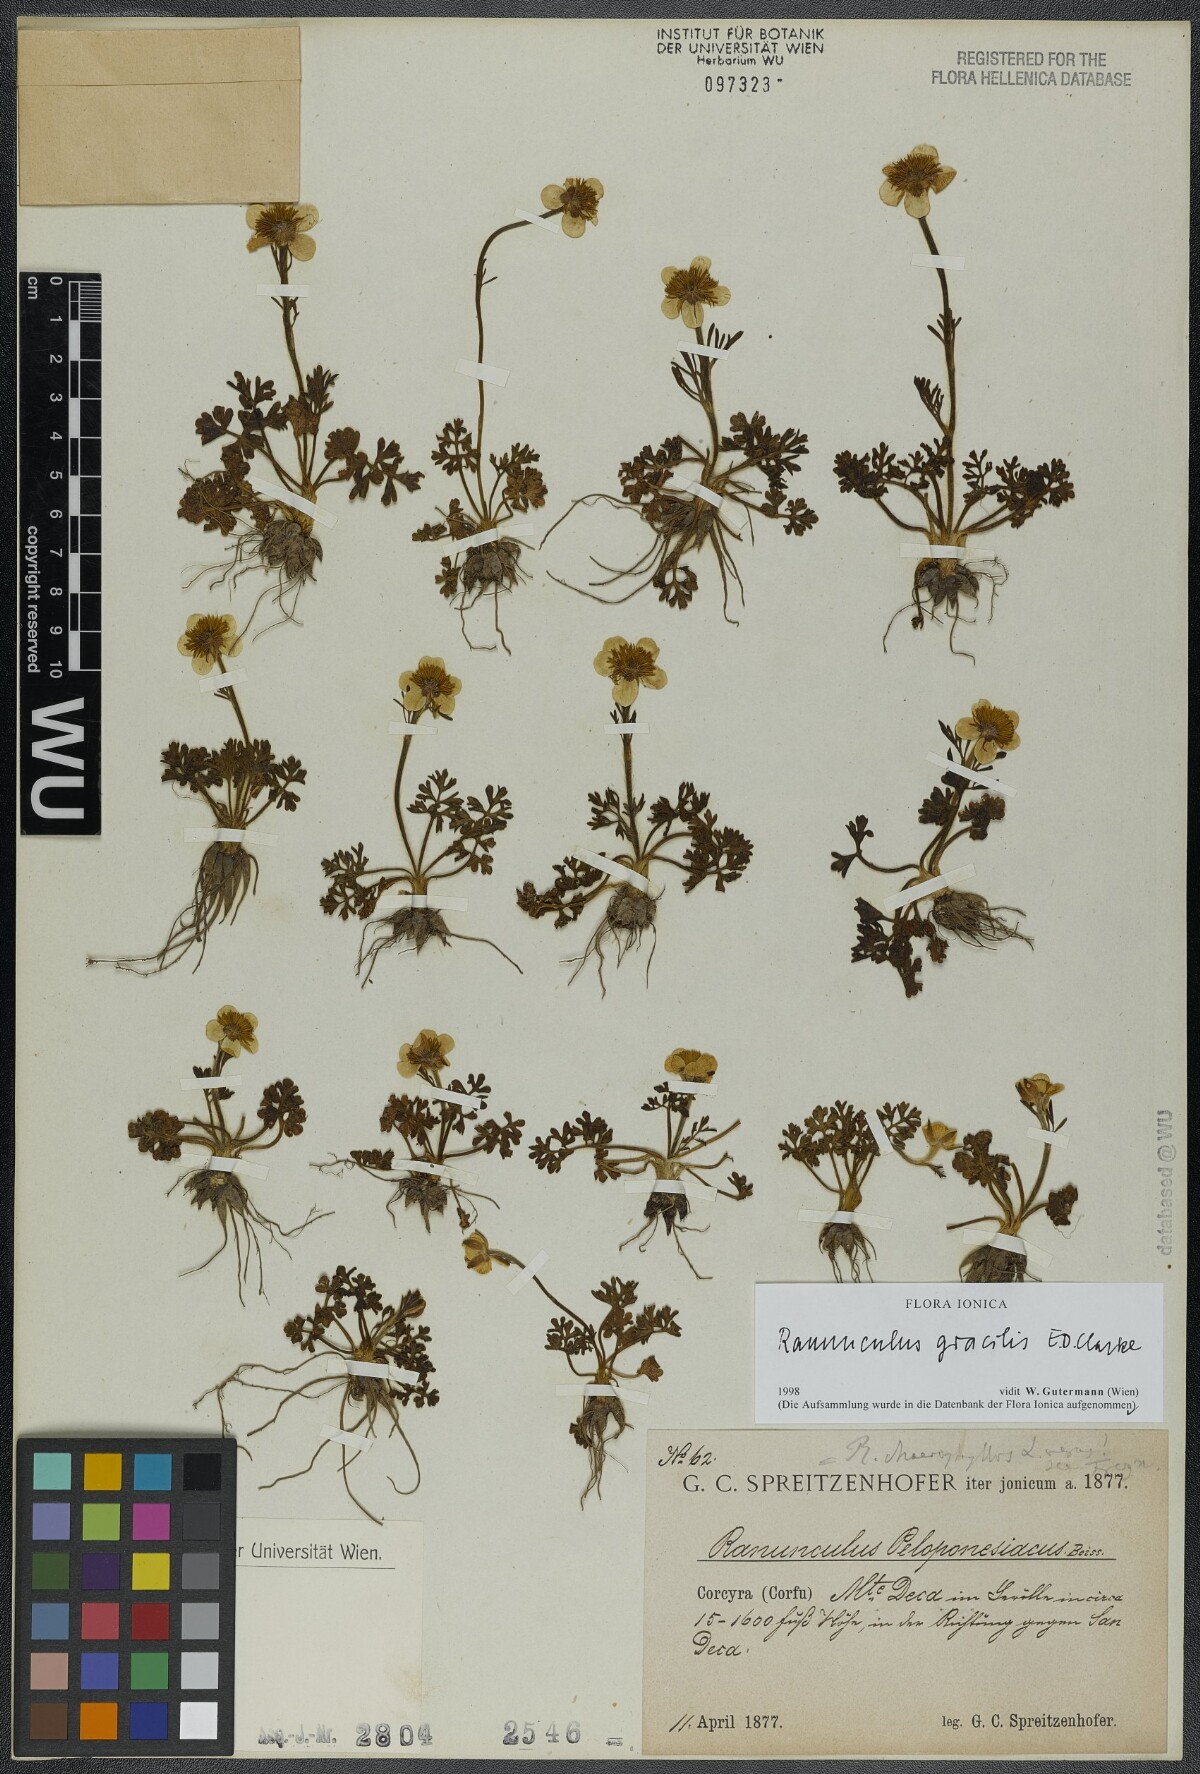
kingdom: Plantae
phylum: Tracheophyta
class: Magnoliopsida
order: Ranunculales
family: Ranunculaceae
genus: Ranunculus
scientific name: Ranunculus gracilis
